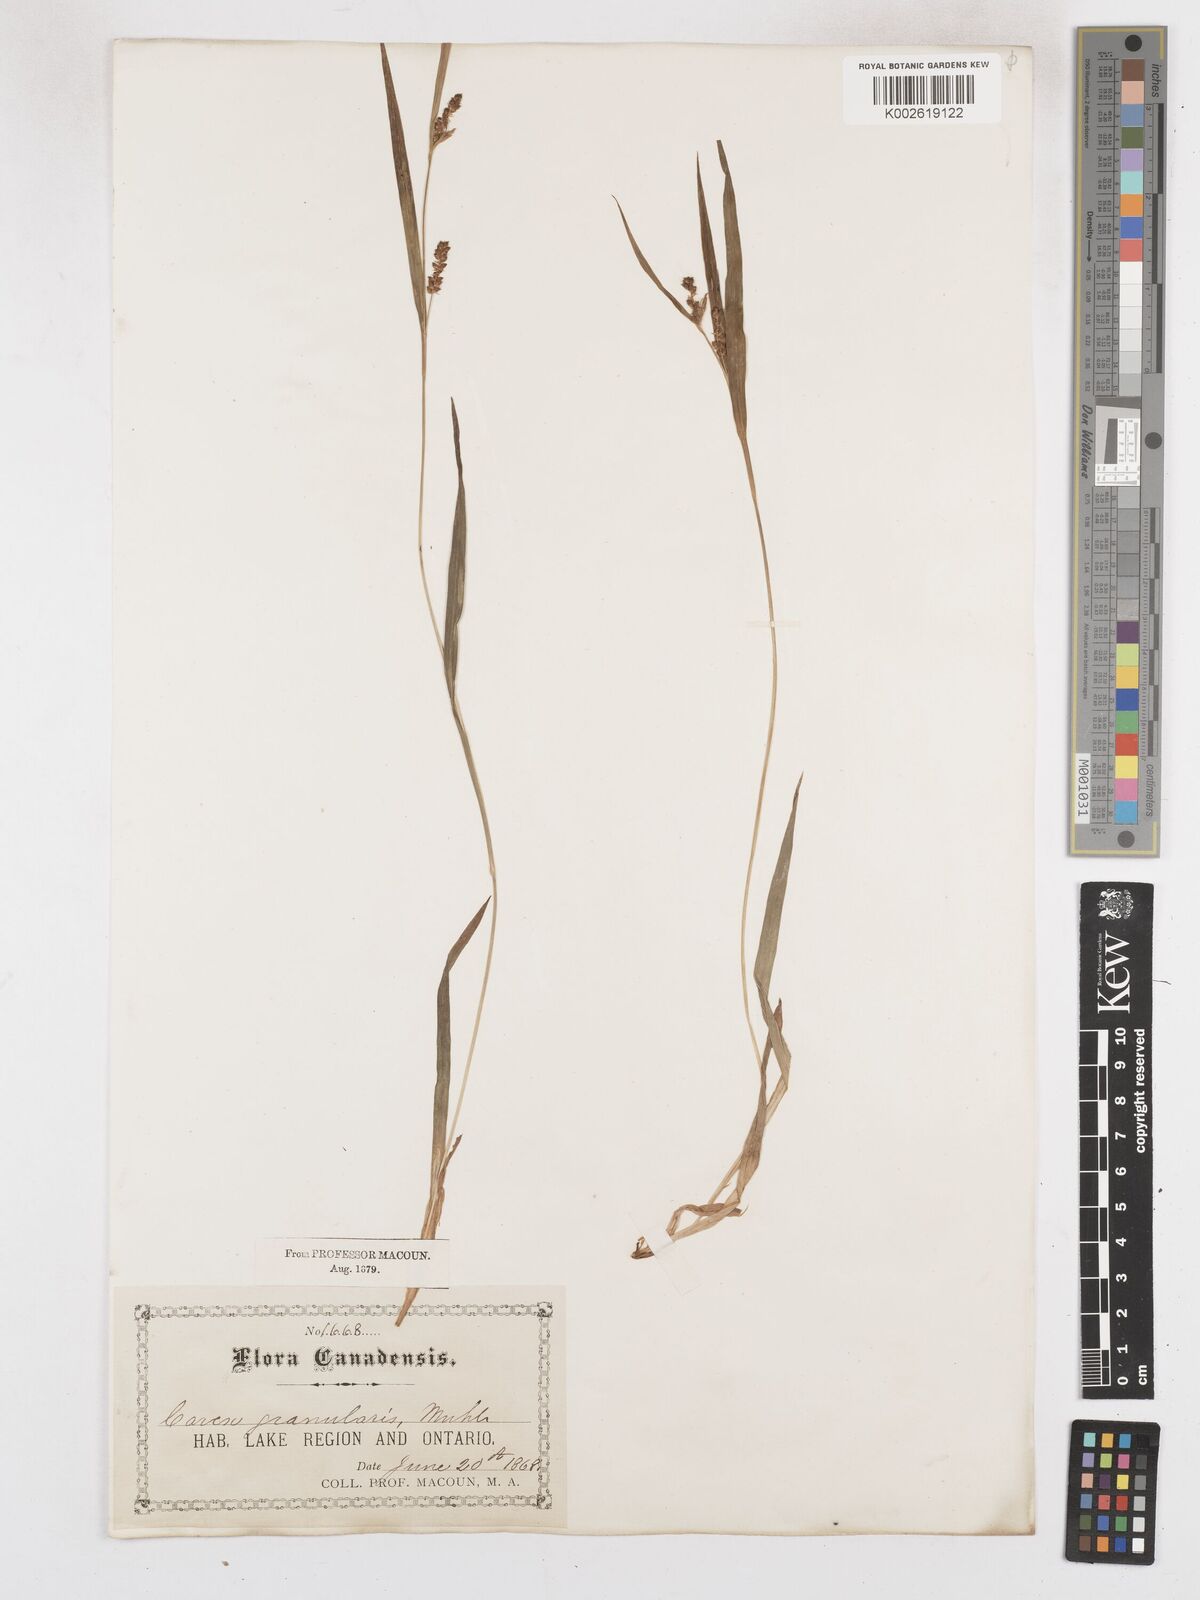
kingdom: Plantae
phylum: Tracheophyta
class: Liliopsida
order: Poales
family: Cyperaceae
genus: Carex
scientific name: Carex granularis
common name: Granular sedge
